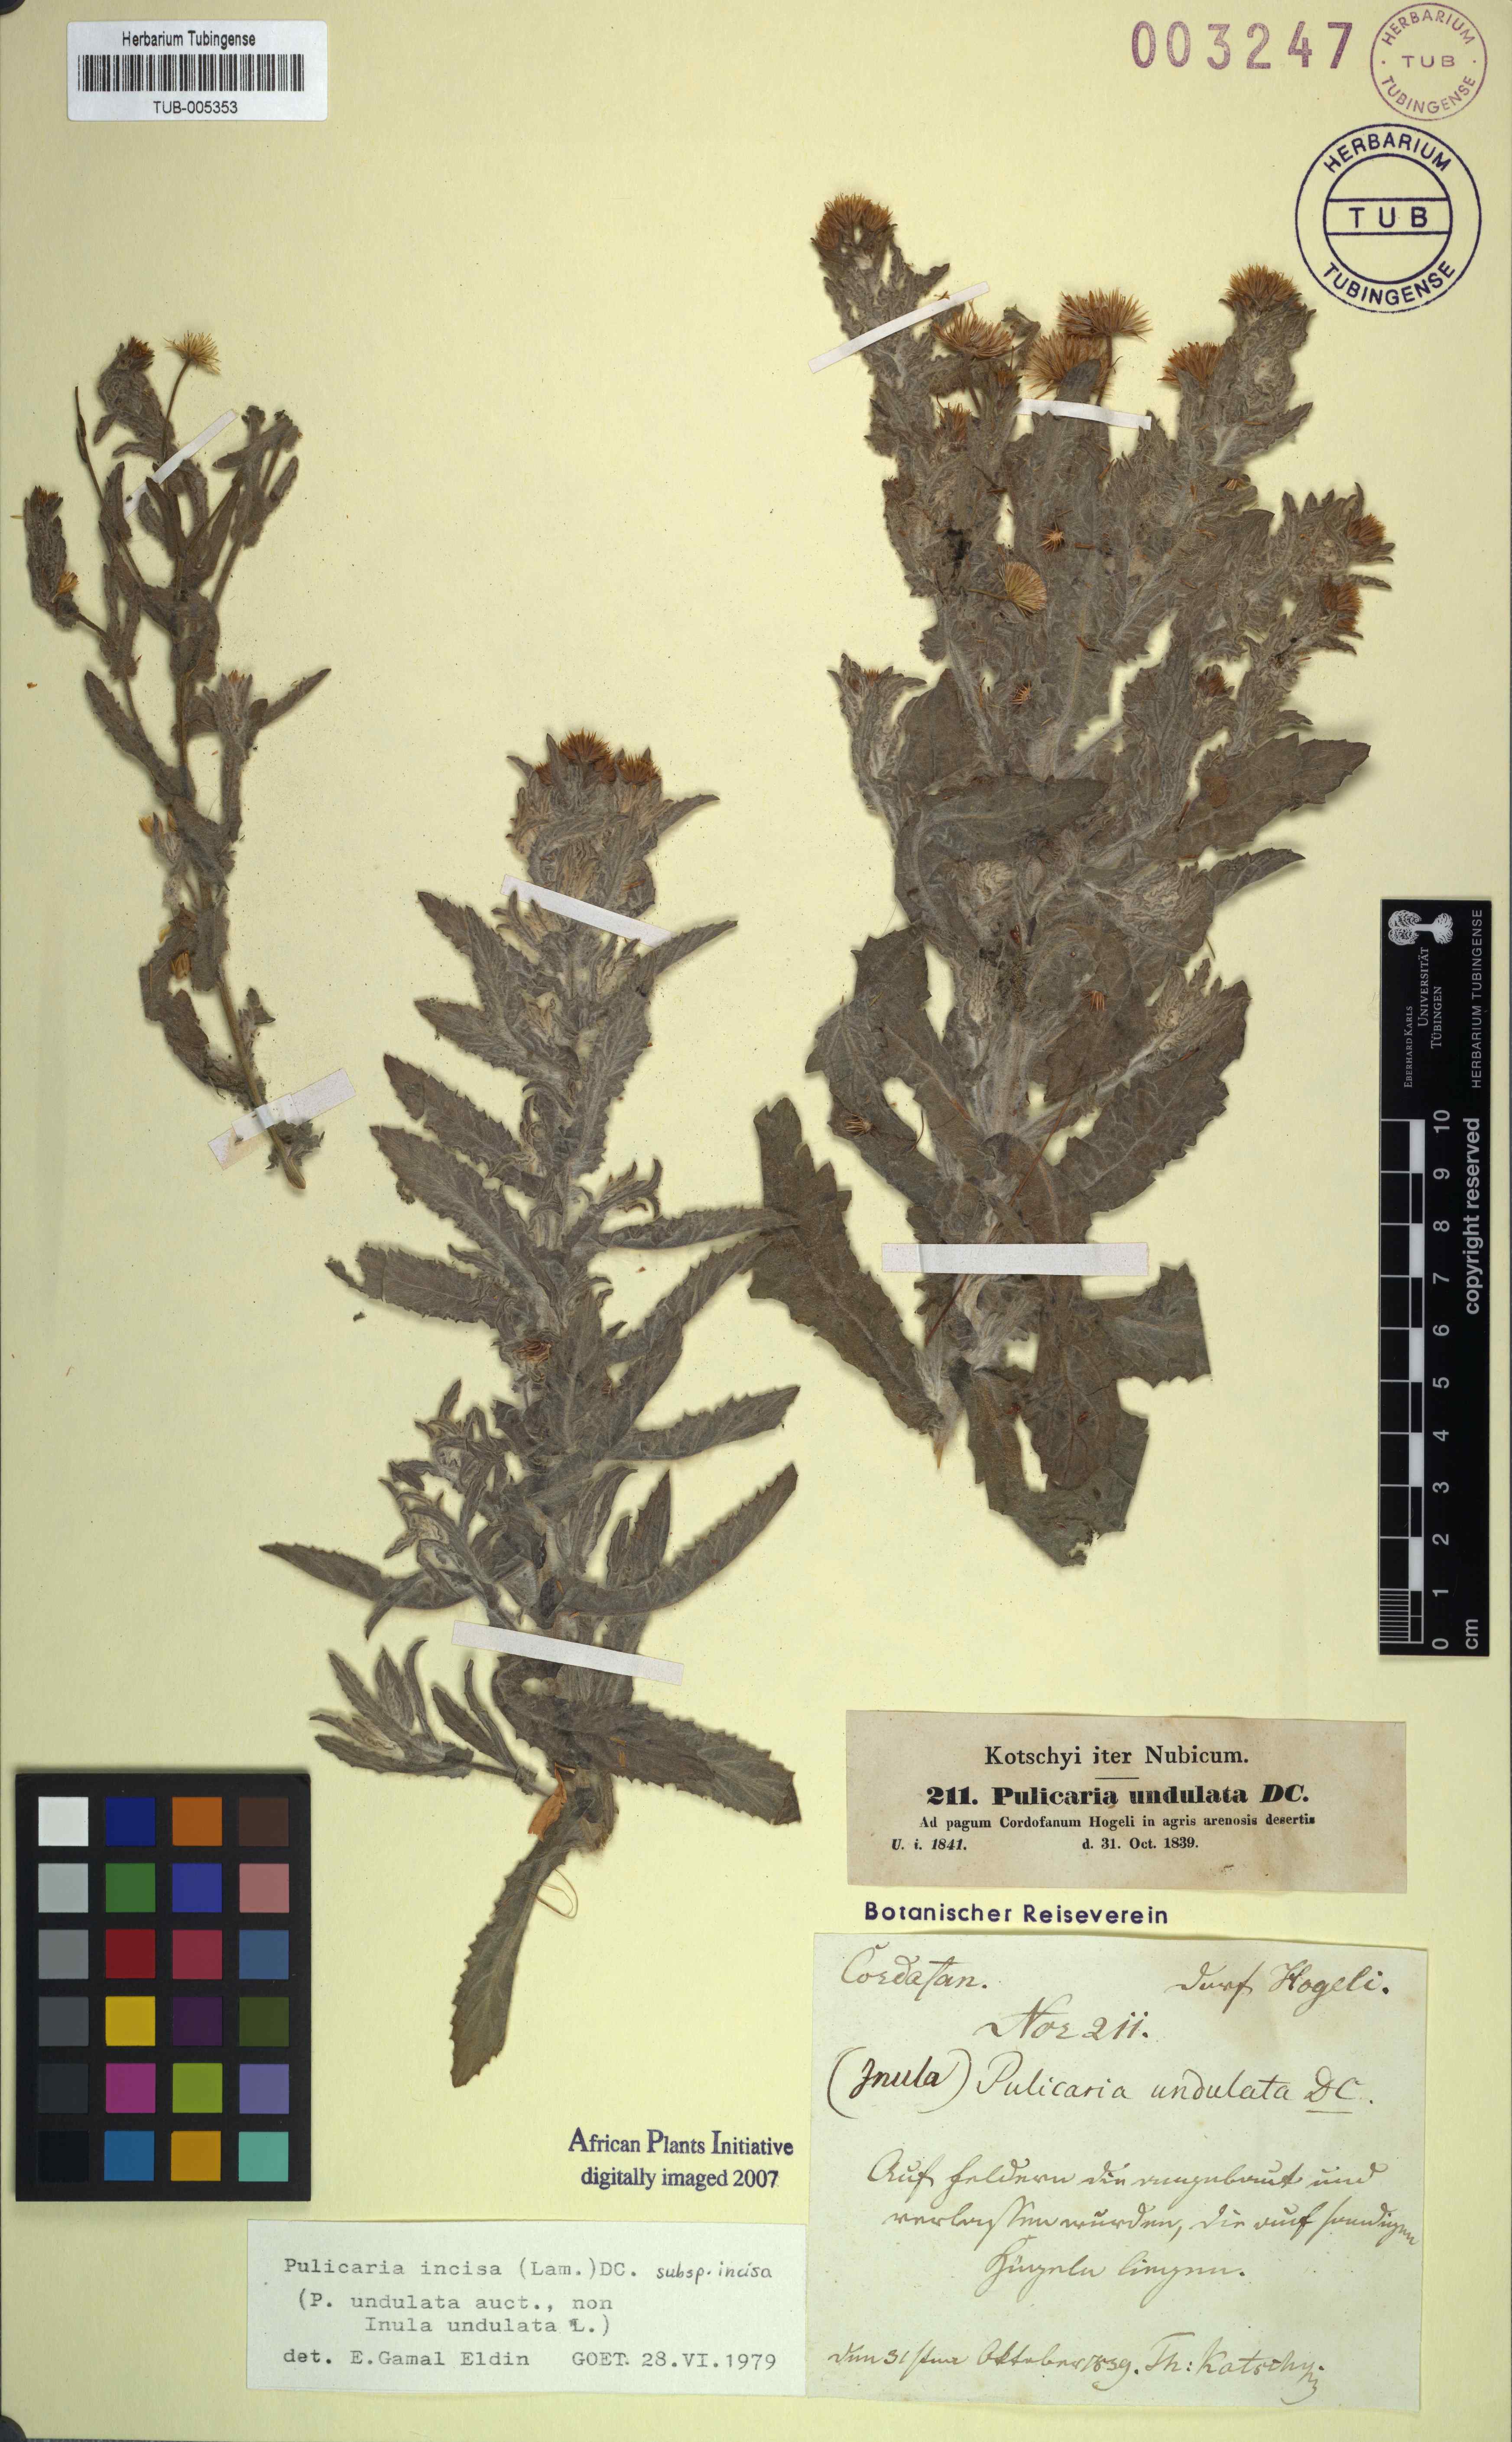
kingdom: Plantae
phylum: Tracheophyta
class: Magnoliopsida
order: Asterales
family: Asteraceae
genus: Pulicaria
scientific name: Pulicaria incisa
